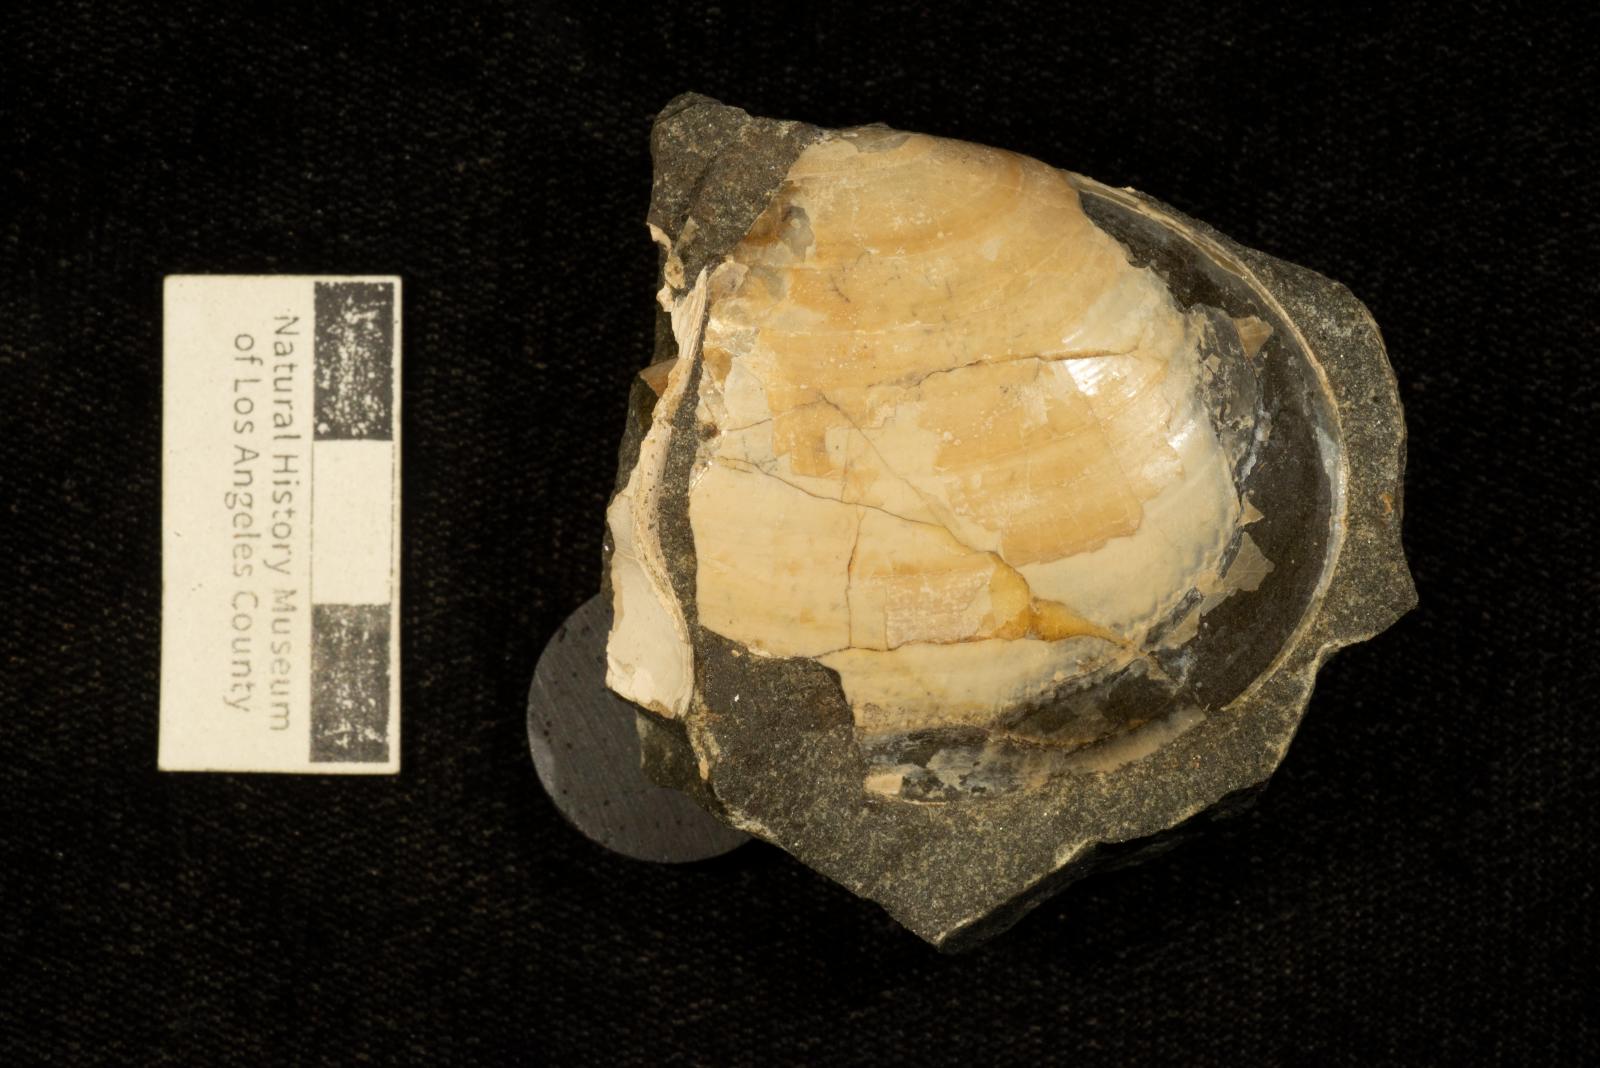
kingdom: Animalia
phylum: Mollusca
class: Bivalvia
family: Laternulidae
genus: Periplomya
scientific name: Periplomya
